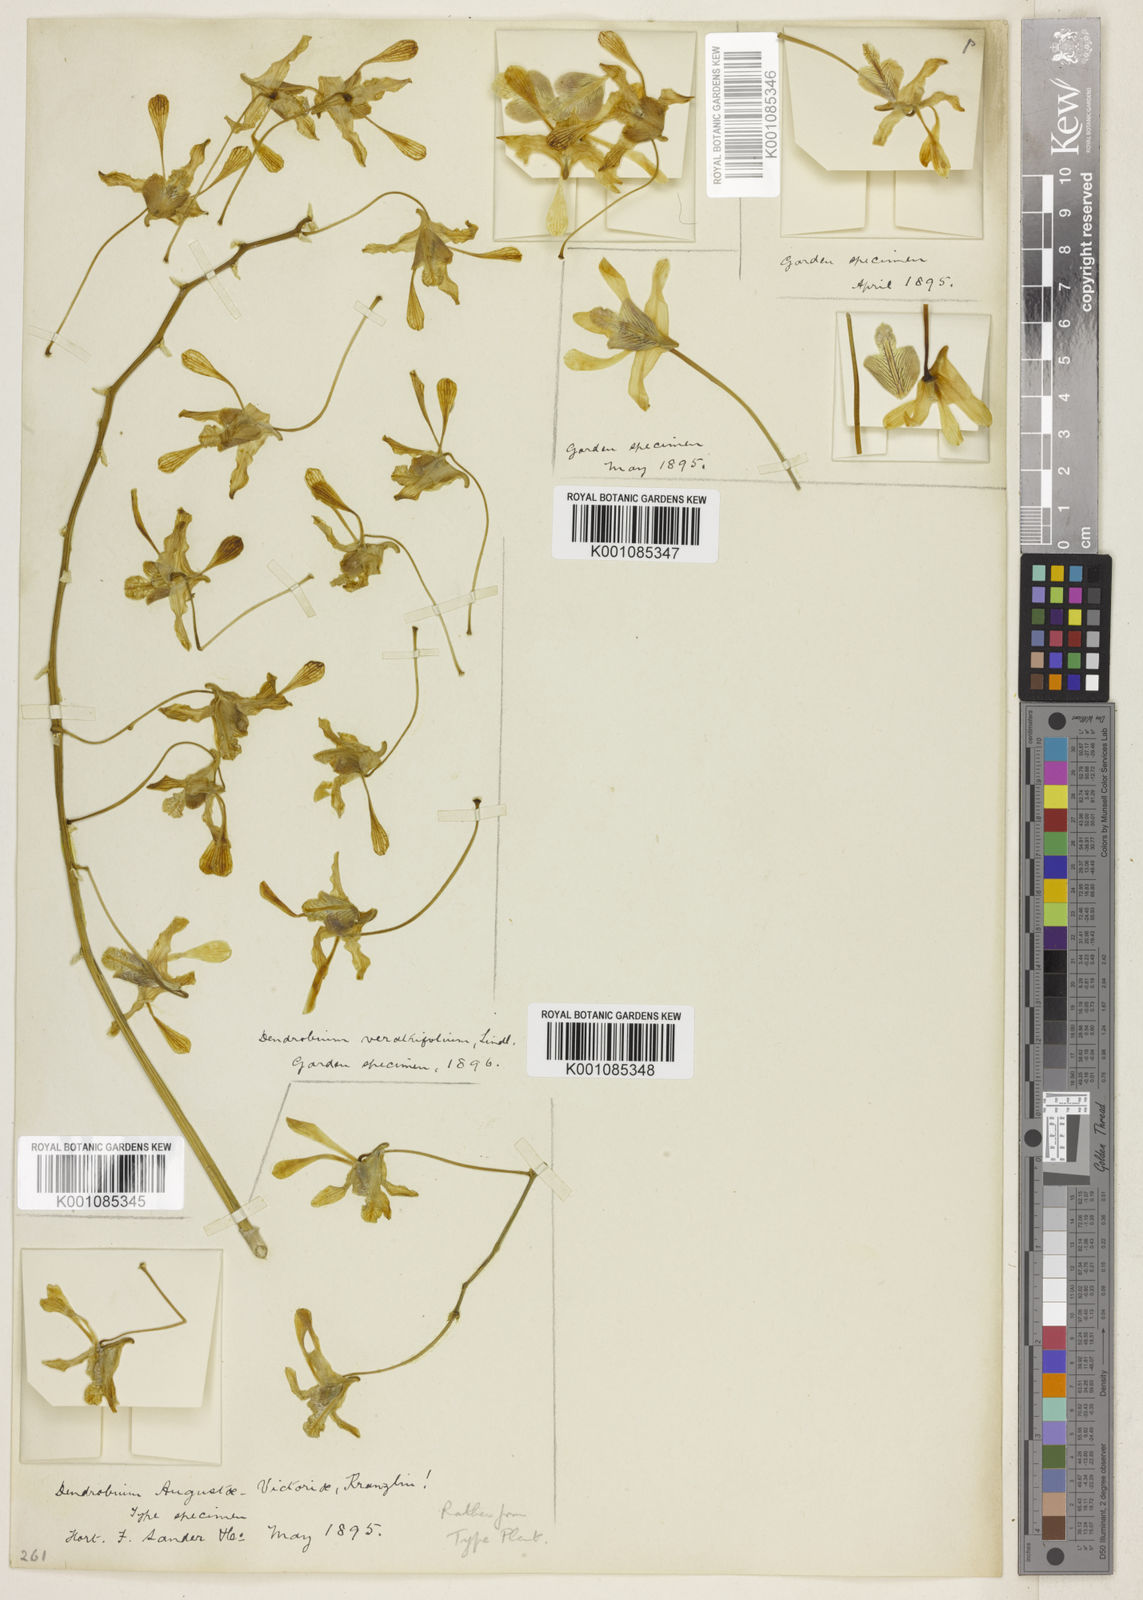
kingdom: Plantae
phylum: Tracheophyta
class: Liliopsida
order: Asparagales
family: Orchidaceae
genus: Dendrobium
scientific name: Dendrobium lineale
